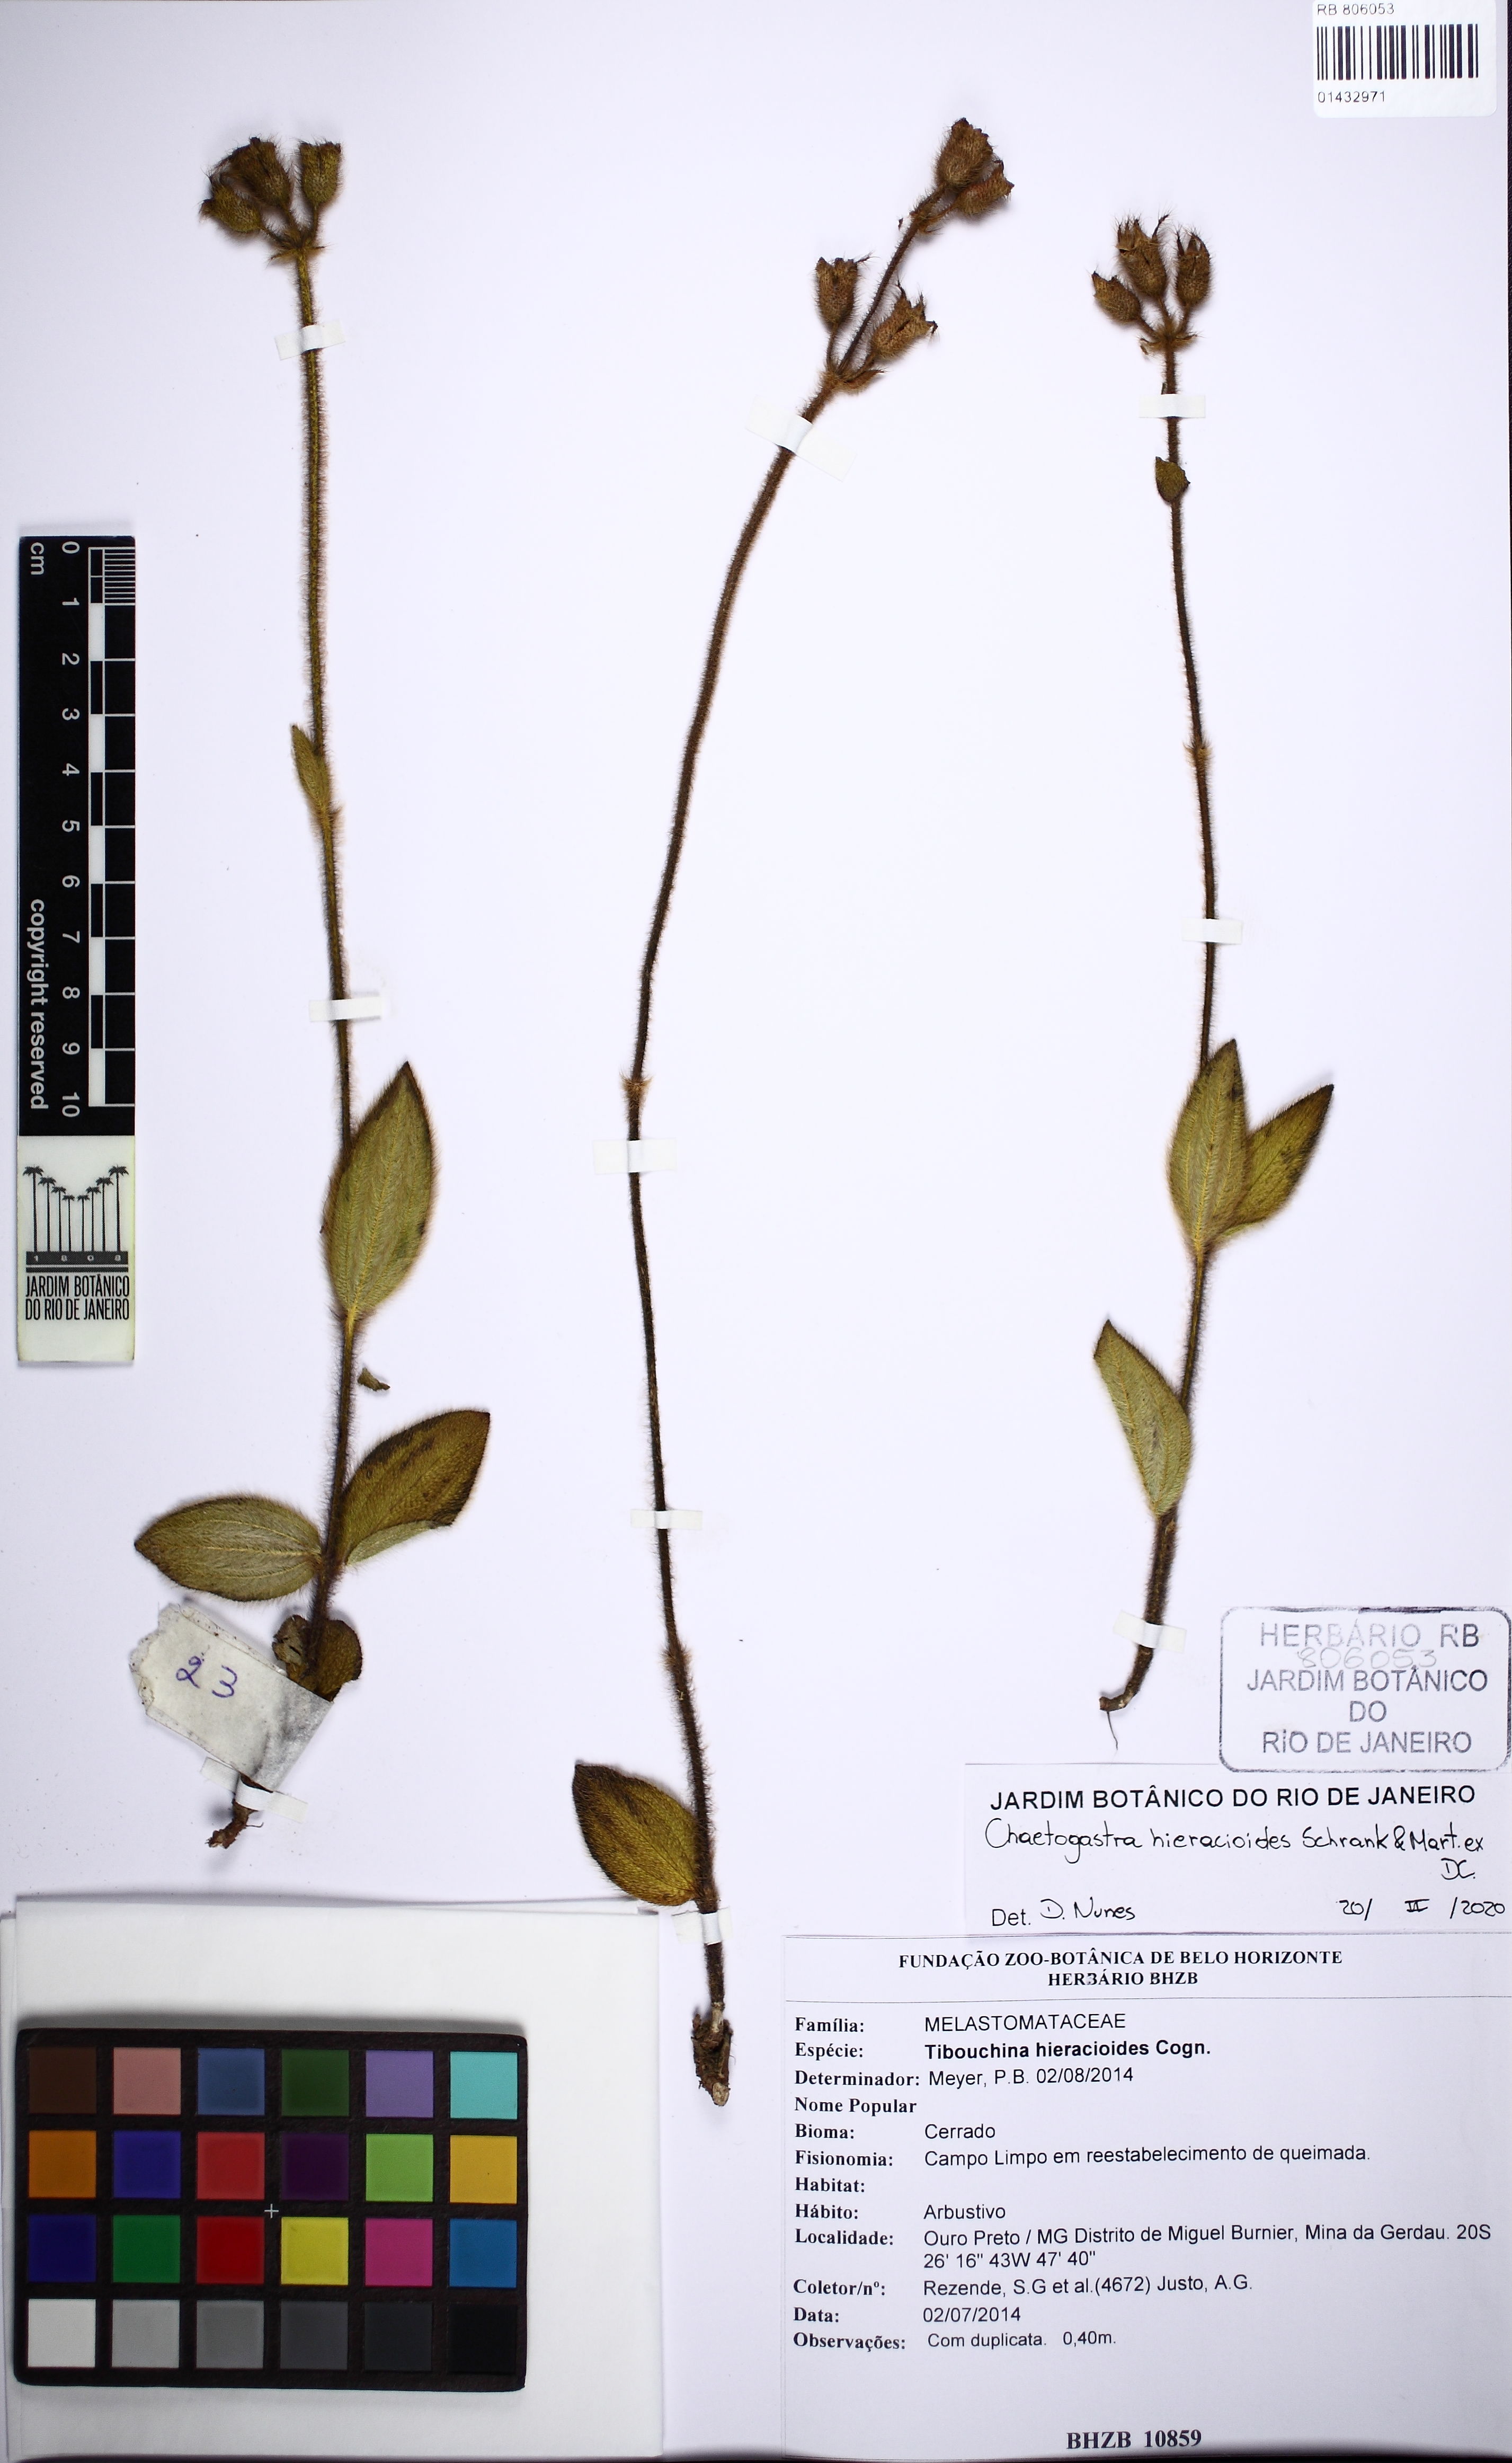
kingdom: Plantae
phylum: Tracheophyta
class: Magnoliopsida
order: Myrtales
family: Melastomataceae
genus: Chaetogastra
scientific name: Chaetogastra hieracioides
